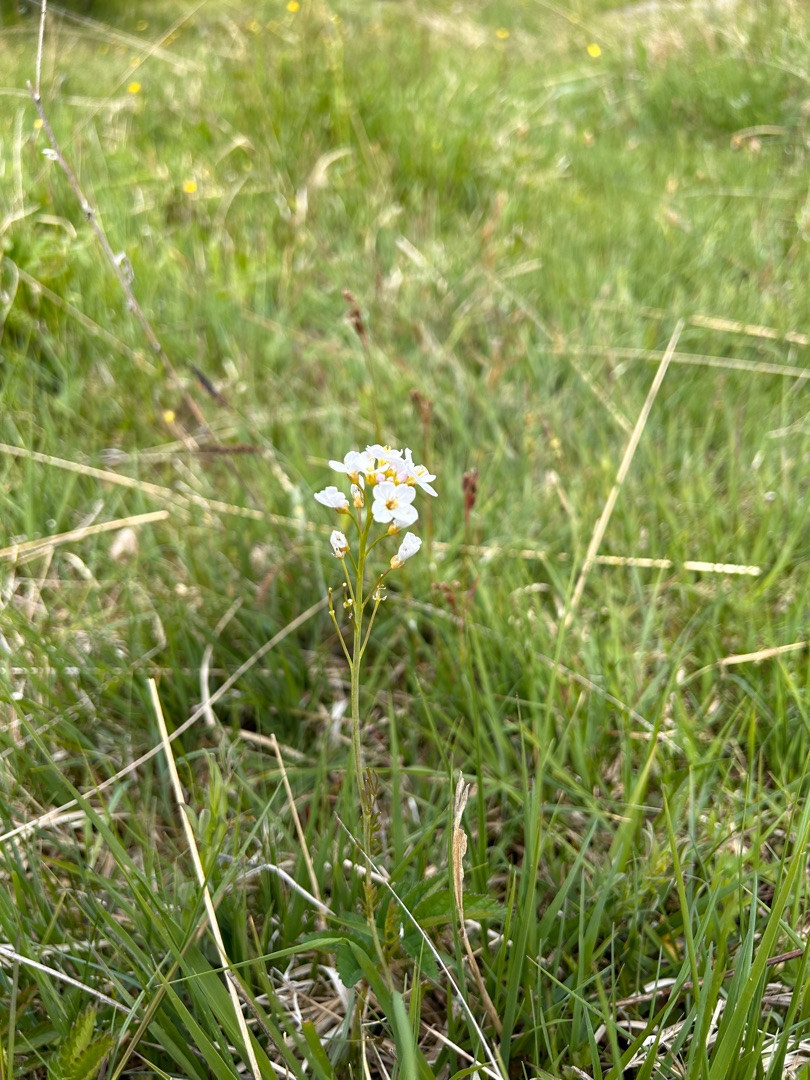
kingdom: Plantae
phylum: Tracheophyta
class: Magnoliopsida
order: Brassicales
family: Brassicaceae
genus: Cardamine
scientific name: Cardamine pratensis
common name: Engkarse
